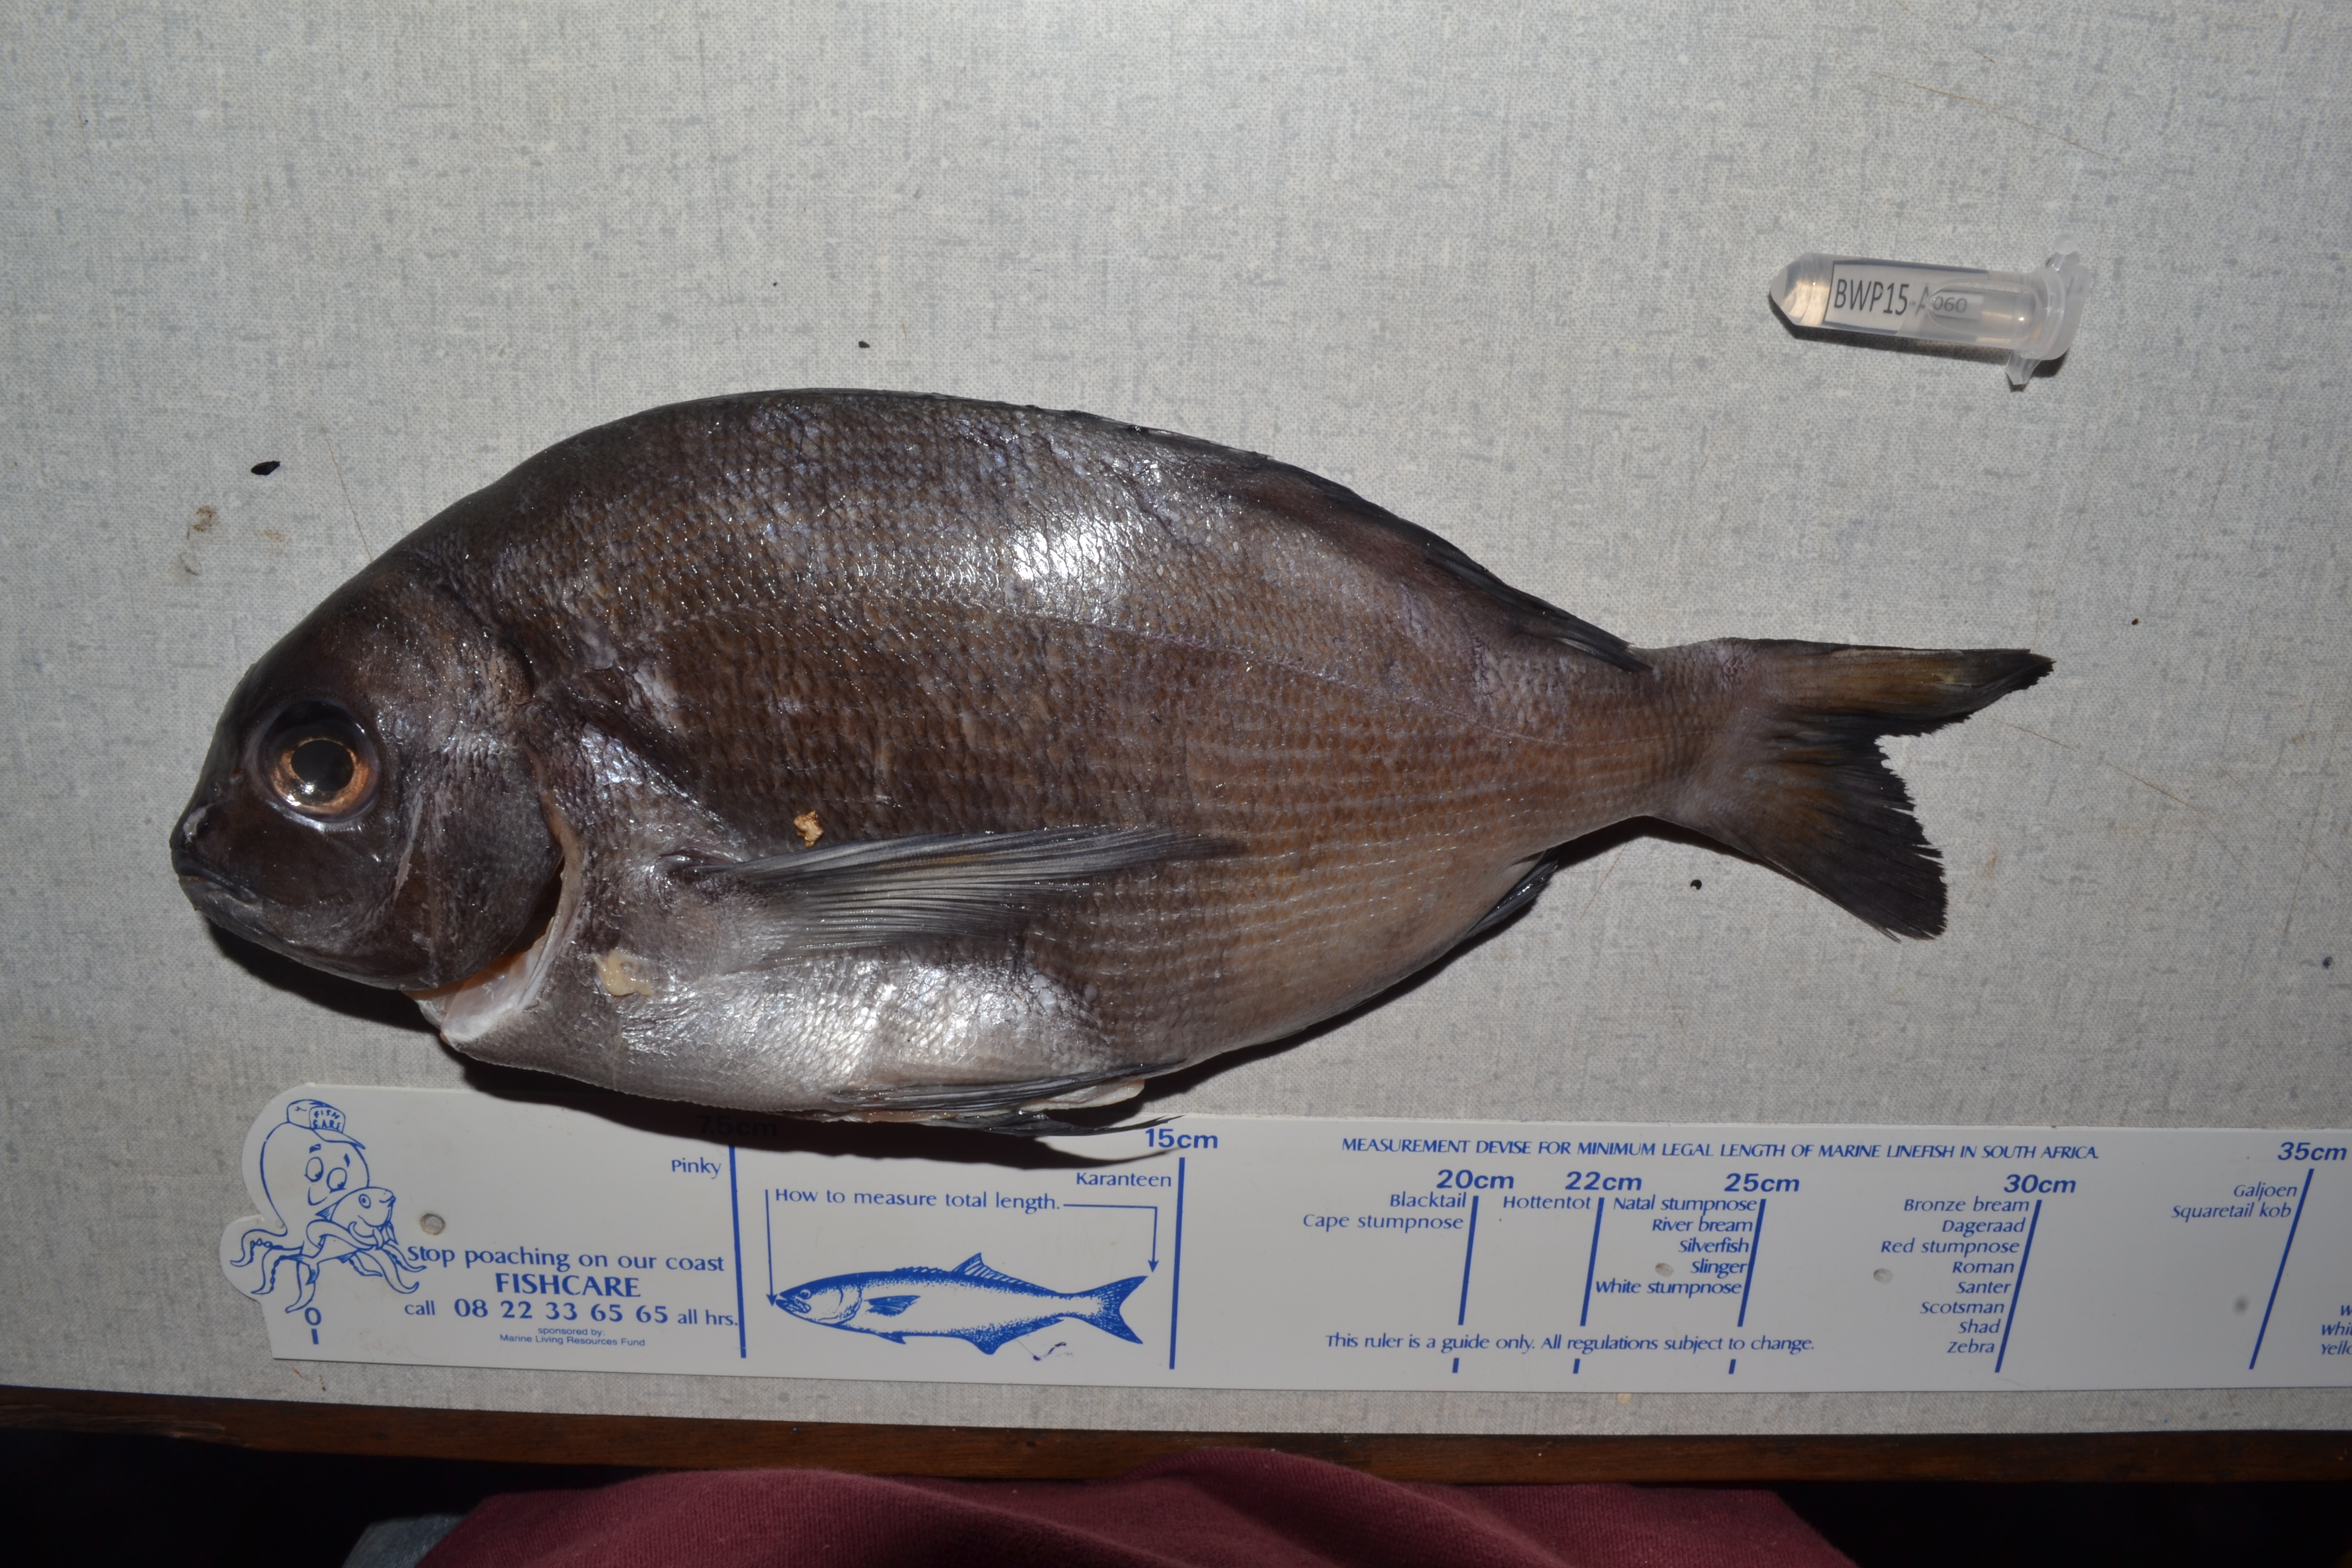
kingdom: Animalia
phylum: Chordata
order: Perciformes
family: Sparidae
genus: Pachymetopon
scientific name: Pachymetopon blochii
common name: Hottentot
